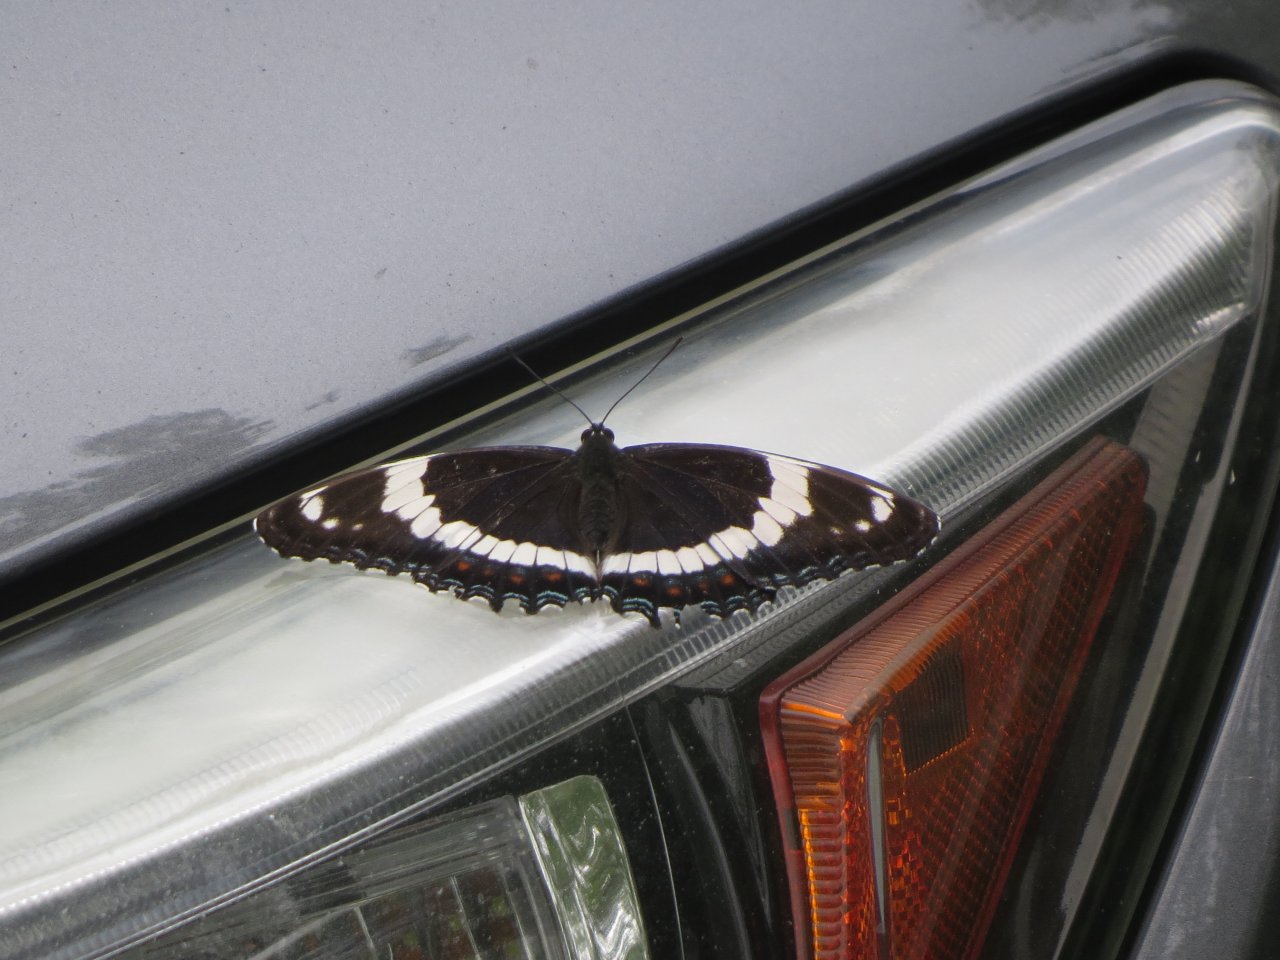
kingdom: Animalia
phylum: Arthropoda
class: Insecta
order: Lepidoptera
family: Nymphalidae
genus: Limenitis
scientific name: Limenitis arthemis
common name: Red-spotted Admiral
